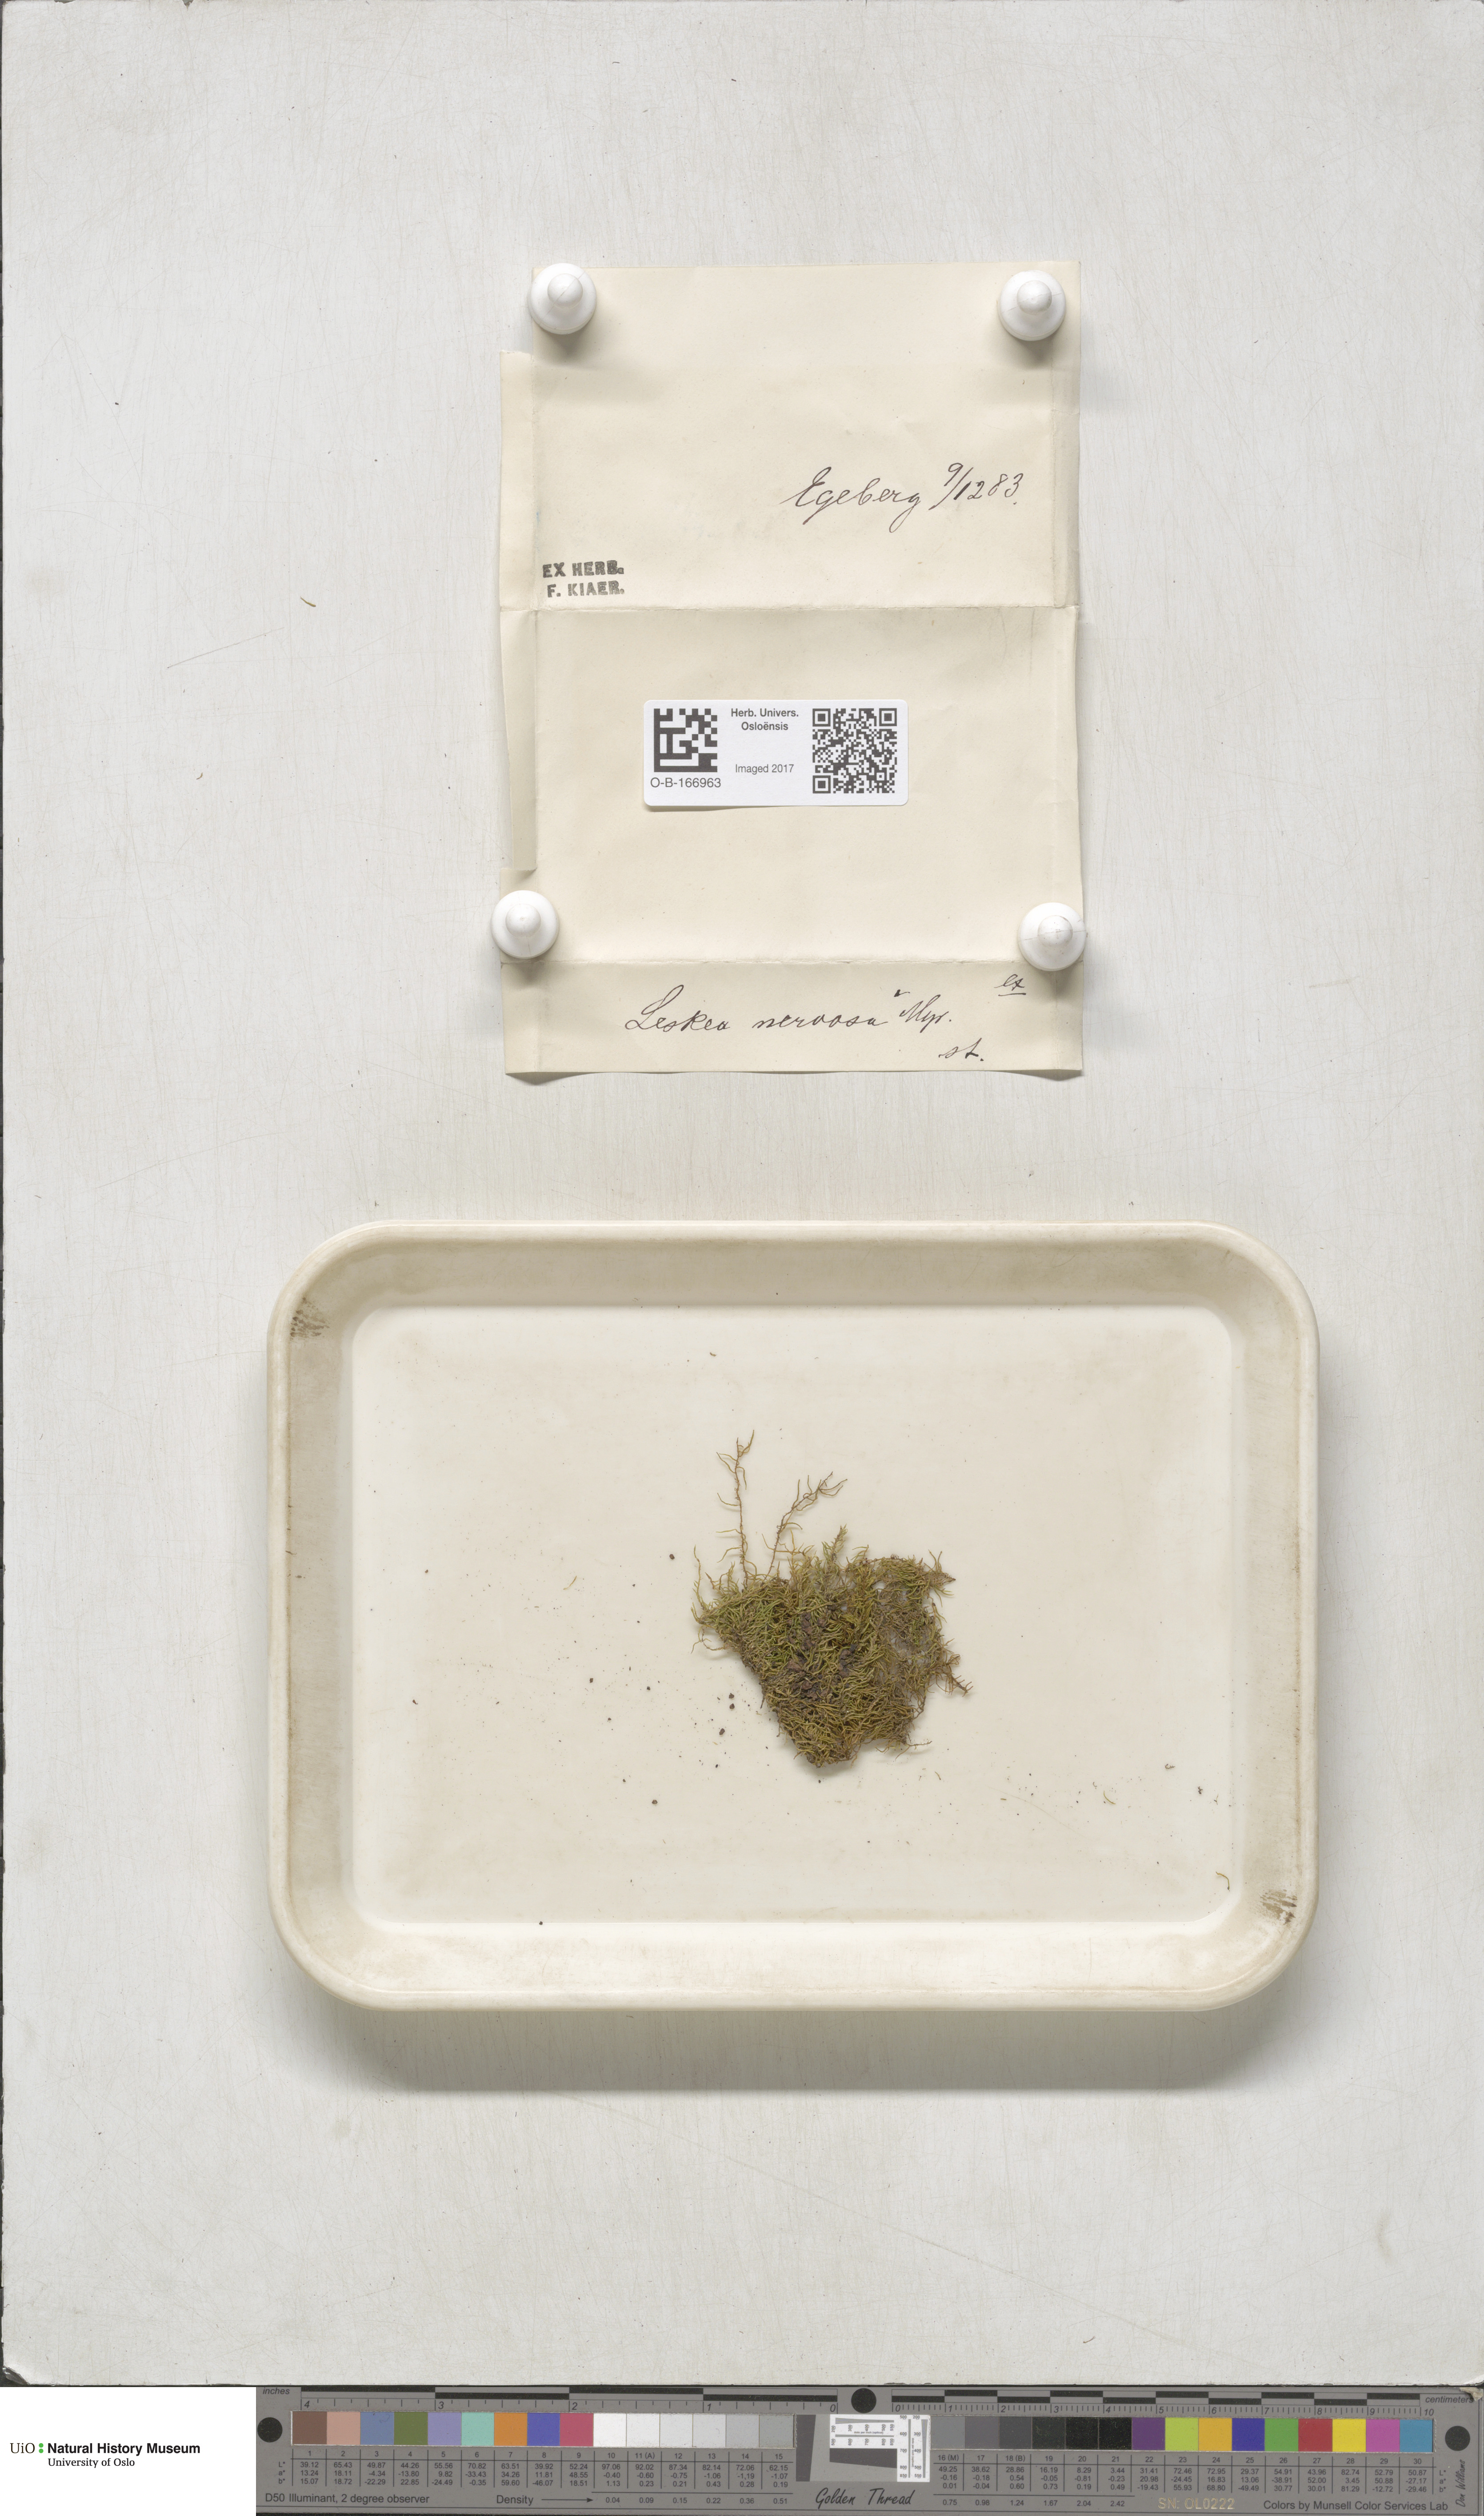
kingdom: Plantae
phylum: Bryophyta
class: Bryopsida
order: Hypnales
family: Pseudoleskeellaceae
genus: Pseudoleskeella
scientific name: Pseudoleskeella nervosa
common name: Nerved leske's moss
